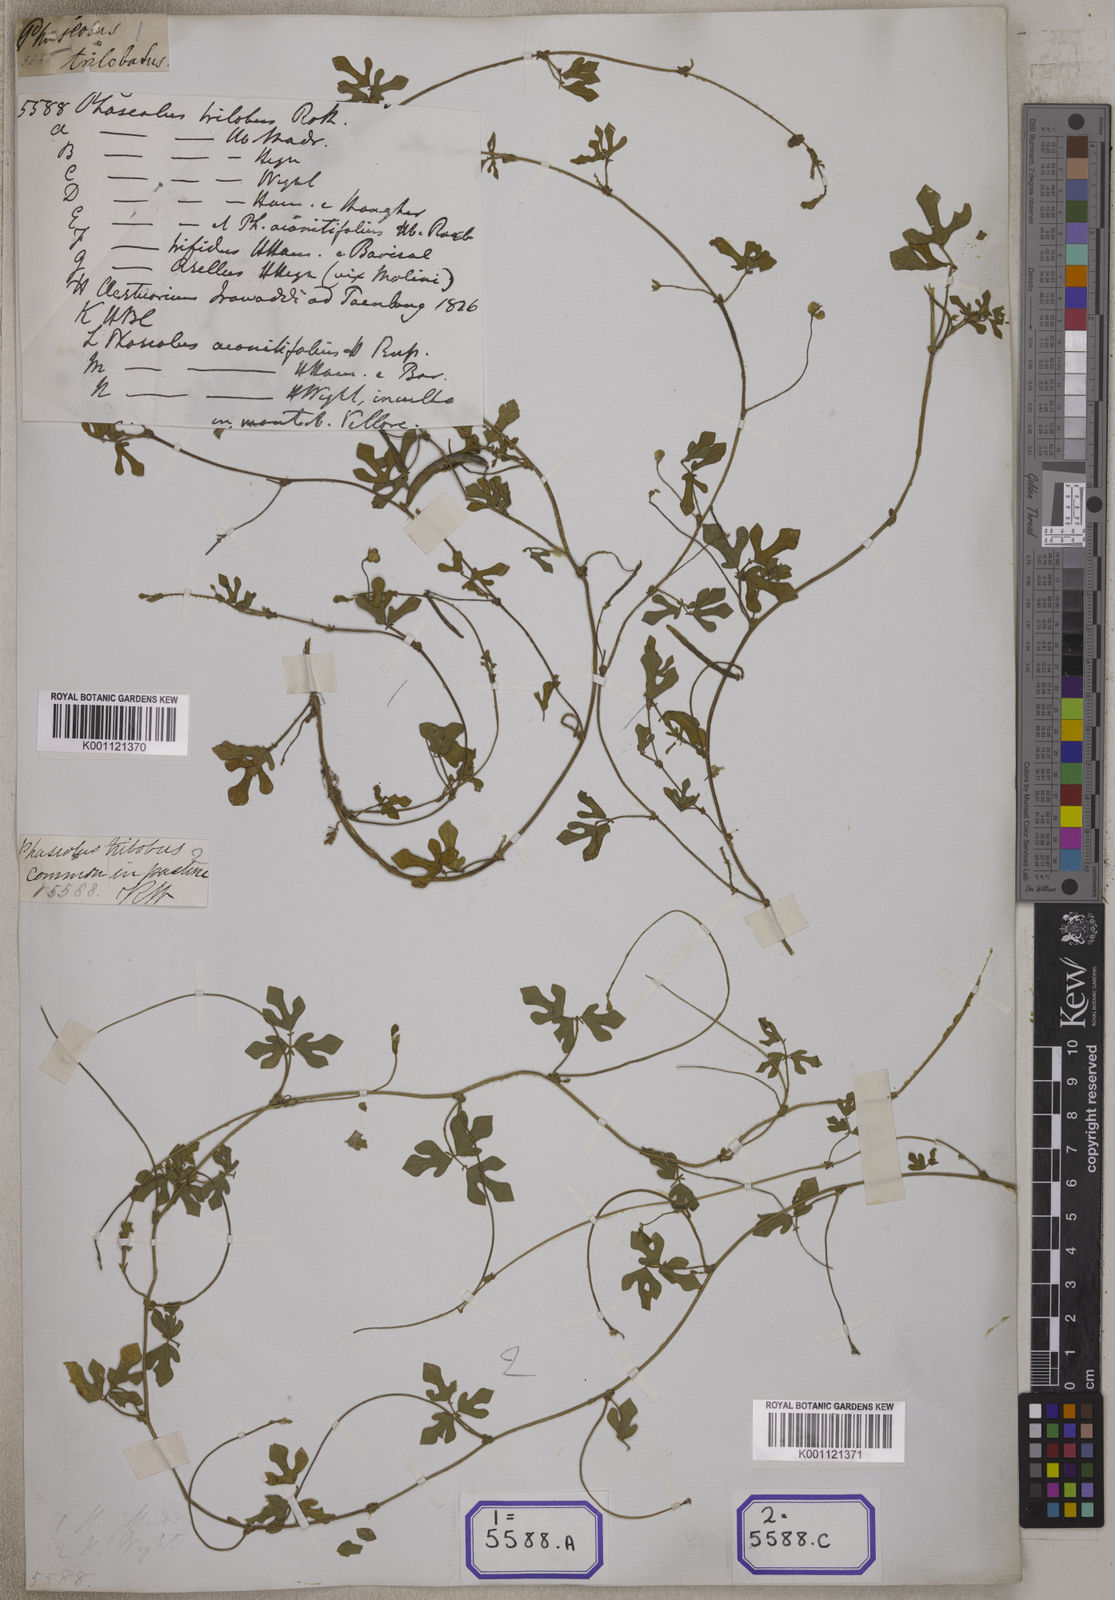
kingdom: Plantae
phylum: Tracheophyta
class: Magnoliopsida
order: Fabales
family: Fabaceae
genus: Phaseolus
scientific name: Phaseolus
